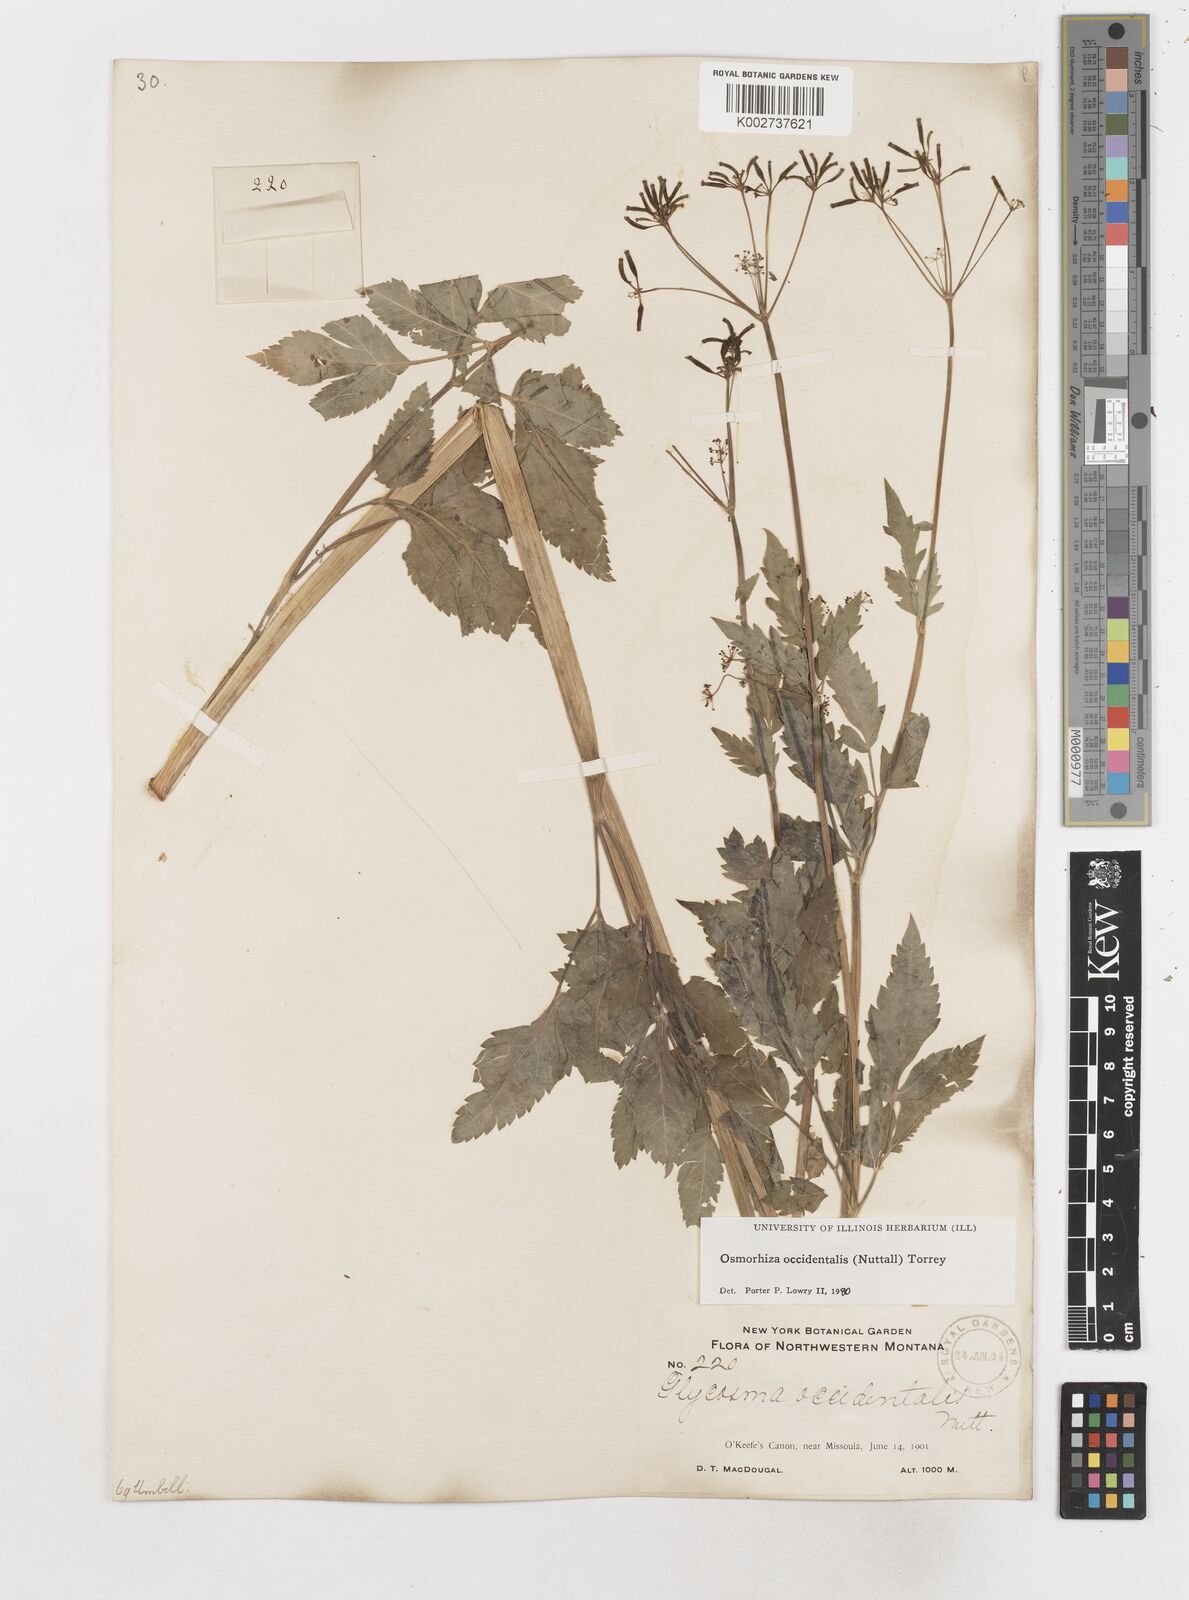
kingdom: Plantae
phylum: Tracheophyta
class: Magnoliopsida
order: Apiales
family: Apiaceae
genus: Osmorhiza
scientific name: Osmorhiza occidentalis
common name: Western sweet cicely
